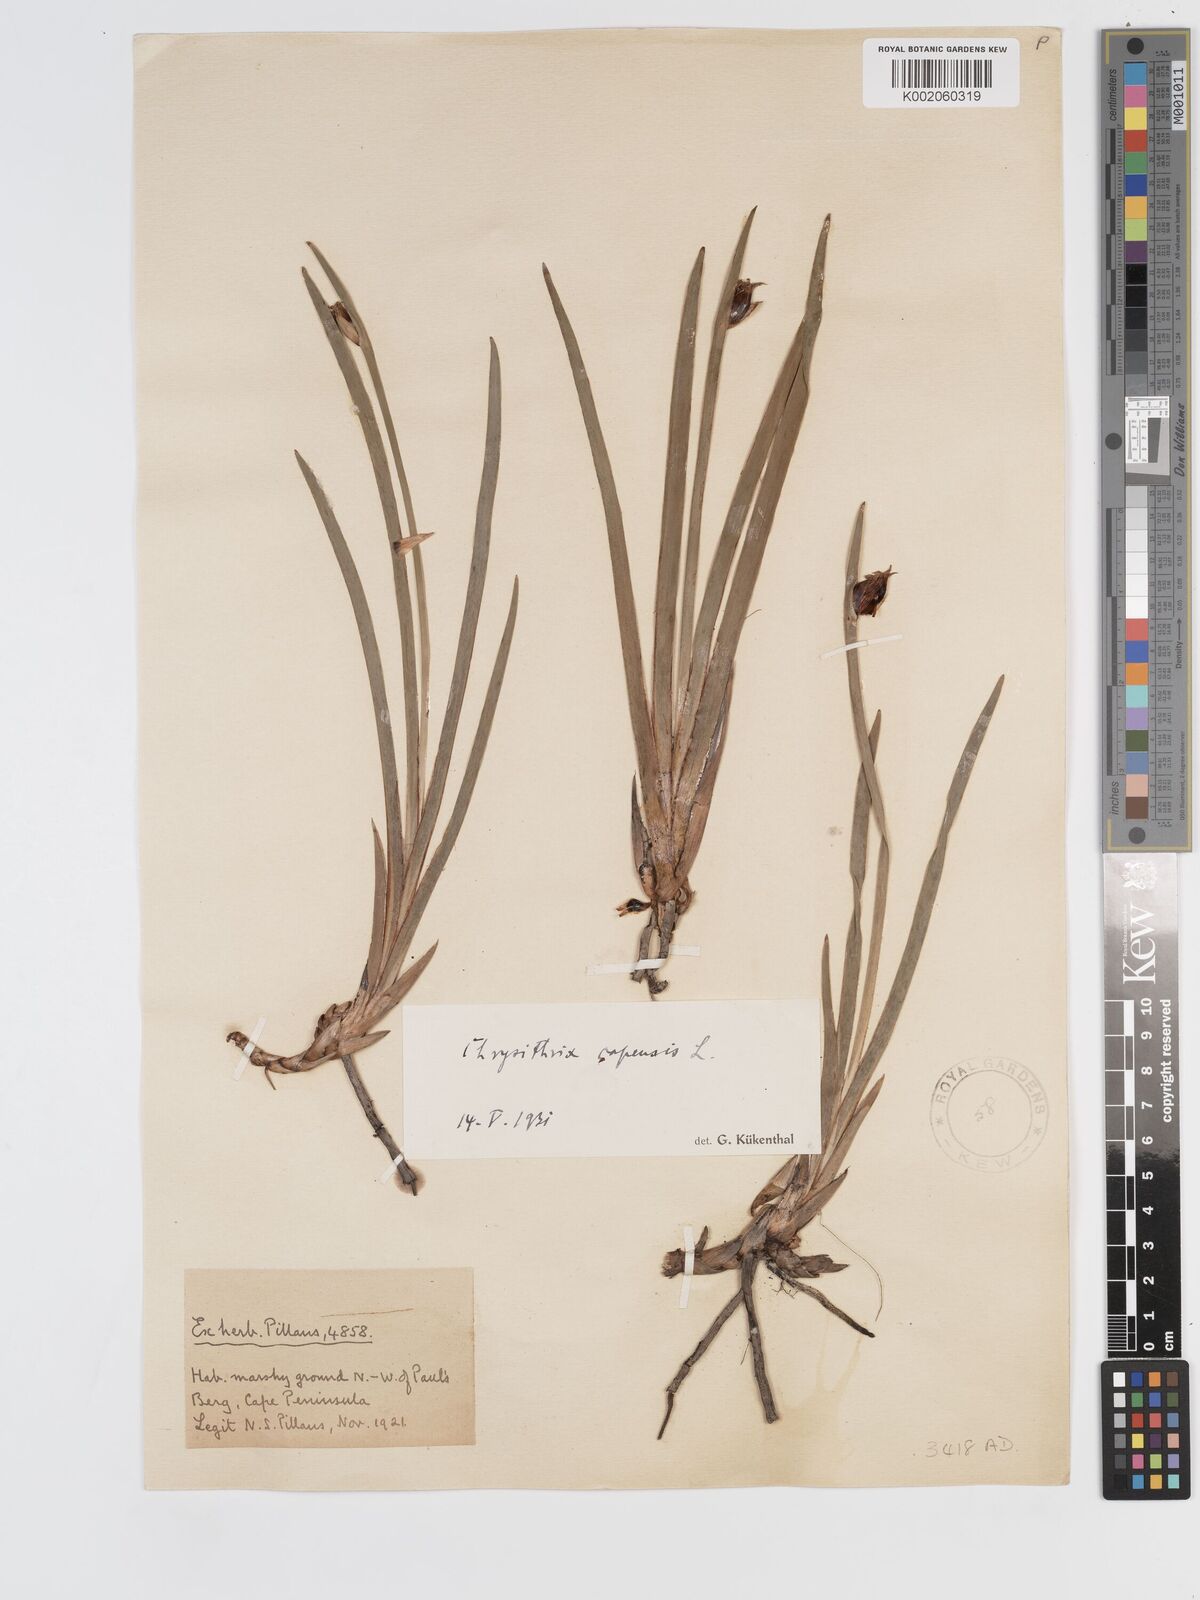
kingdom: Plantae
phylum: Tracheophyta
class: Liliopsida
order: Poales
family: Cyperaceae
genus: Chrysitrix
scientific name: Chrysitrix capensis
